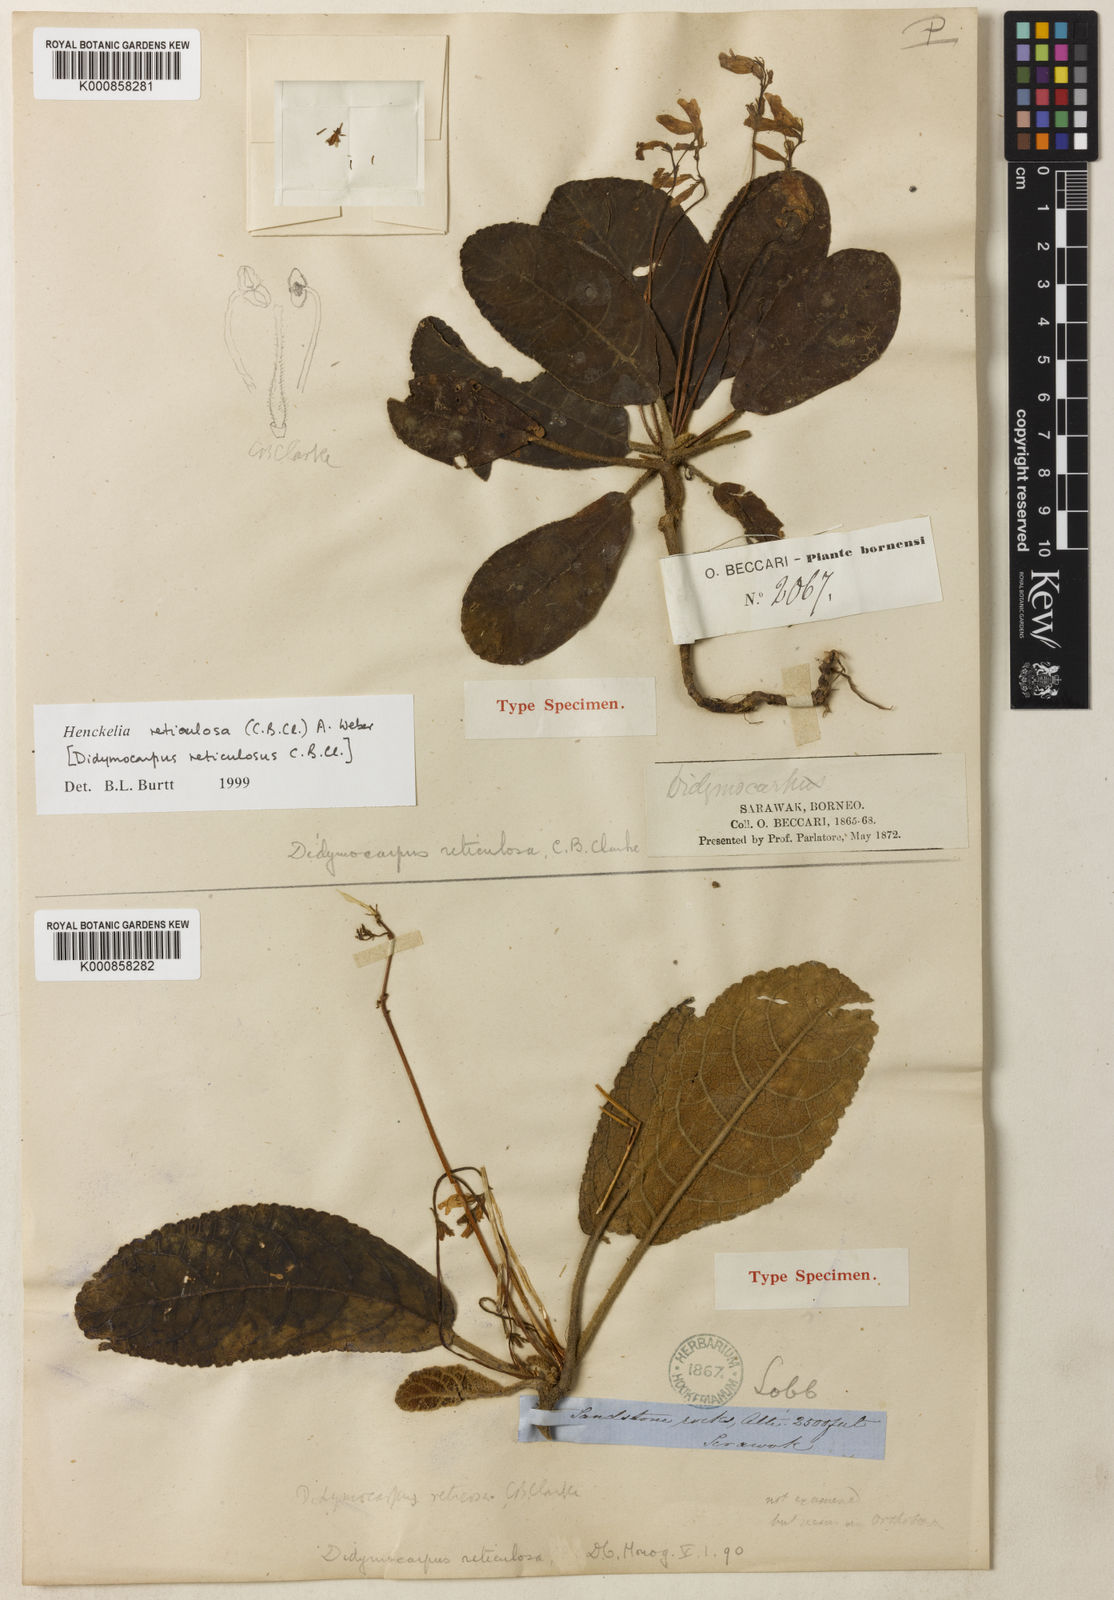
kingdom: Plantae
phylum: Tracheophyta
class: Magnoliopsida
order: Lamiales
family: Gesneriaceae
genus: Codonoboea
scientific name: Codonoboea reticulosa
